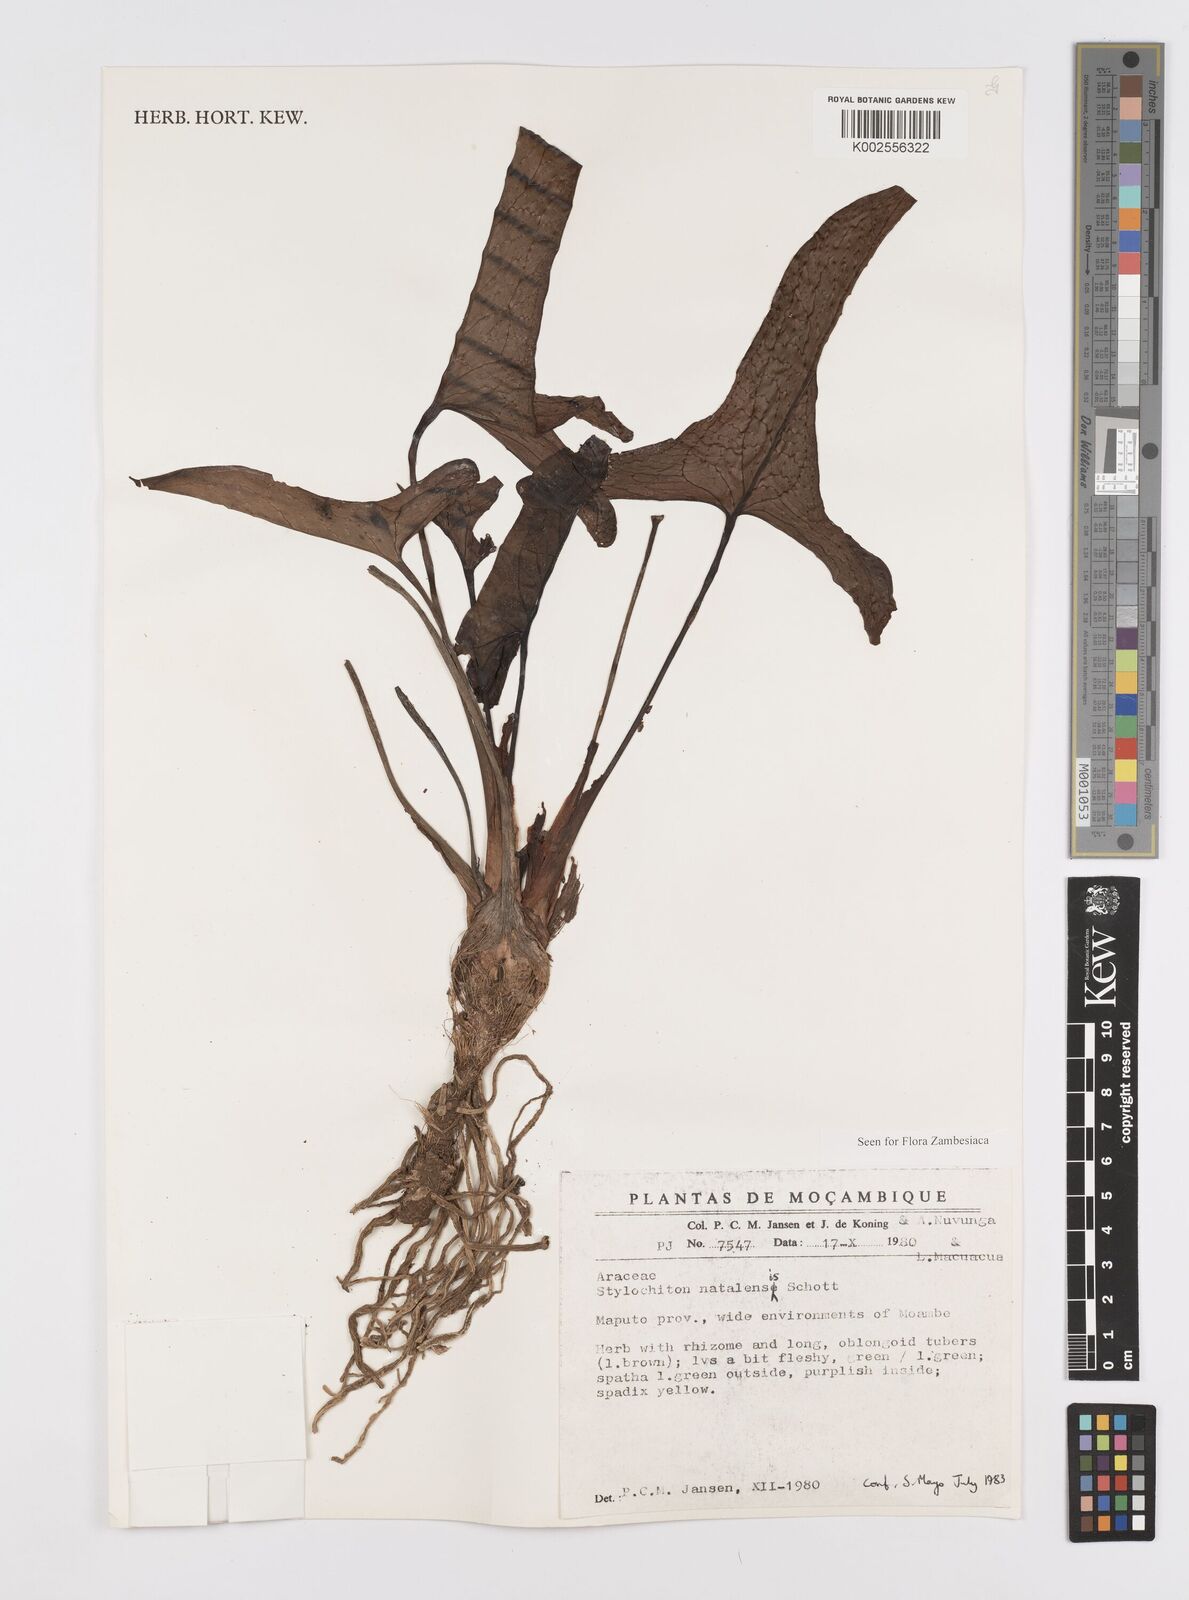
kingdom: Plantae
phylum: Tracheophyta
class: Liliopsida
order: Alismatales
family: Araceae
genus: Stylochaeton
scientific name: Stylochaeton natalense
